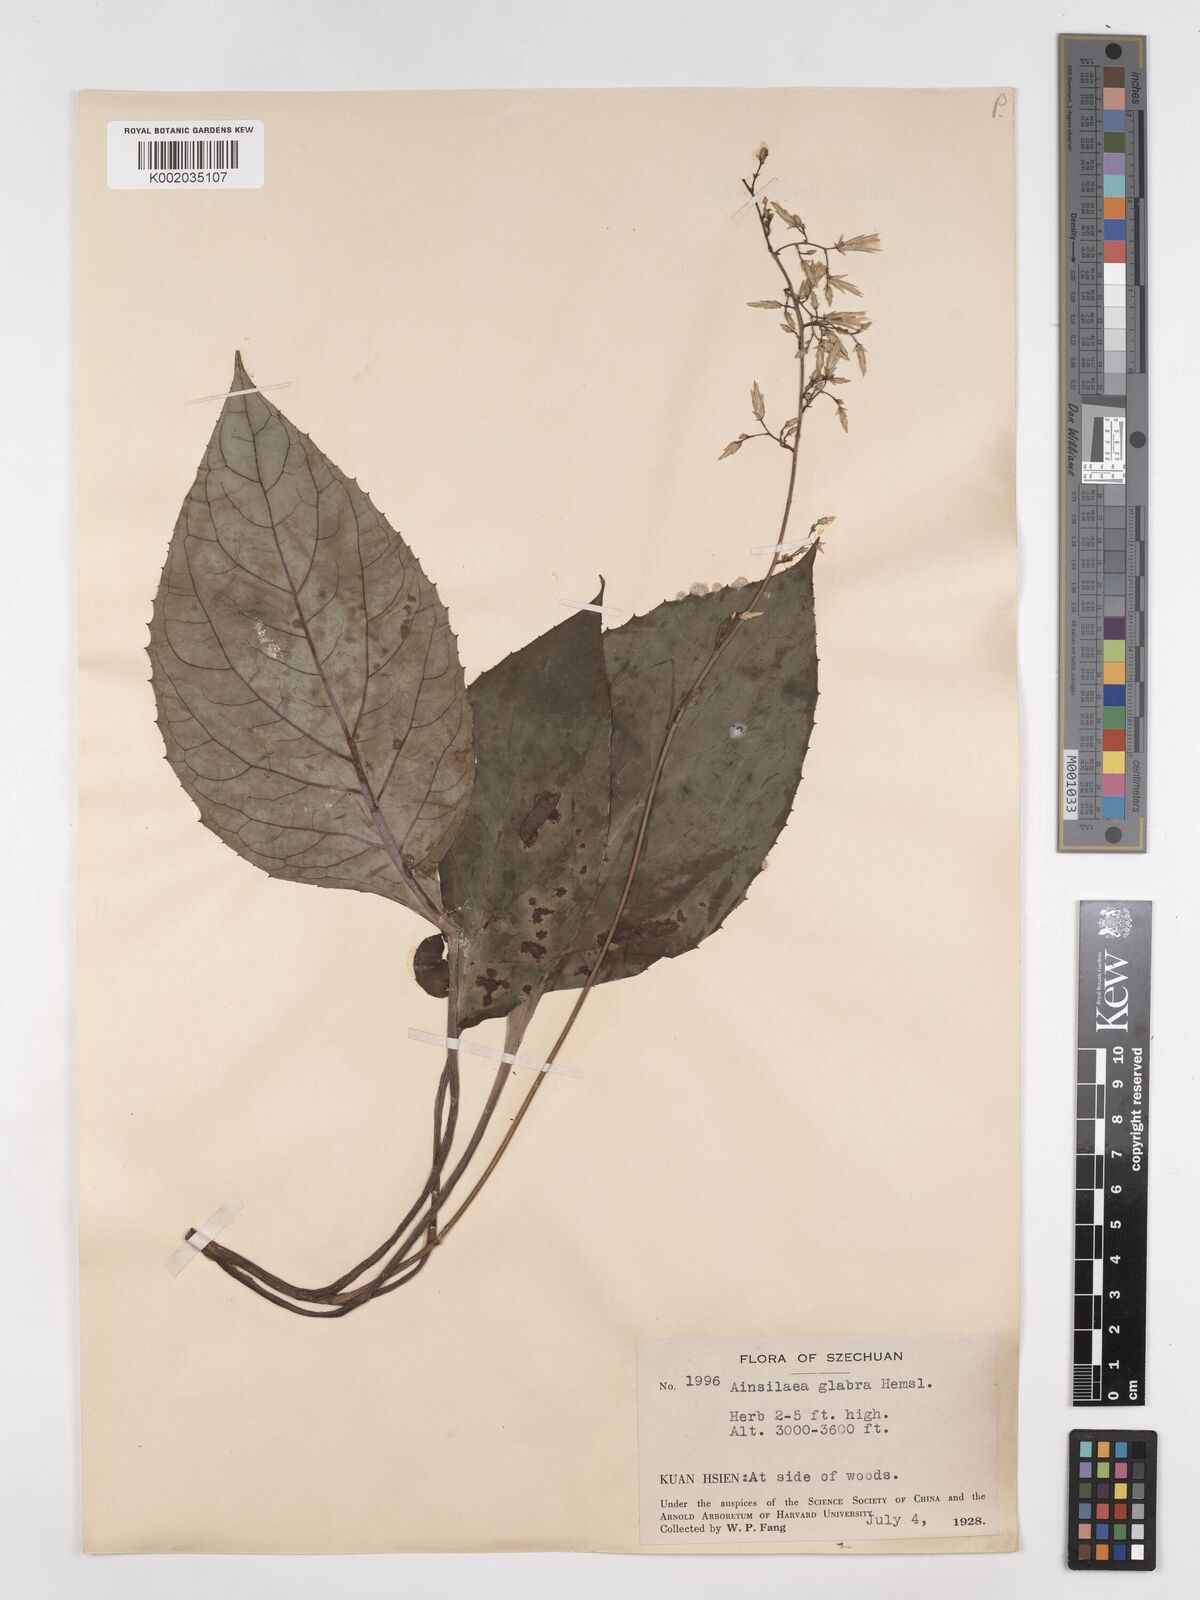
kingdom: Plantae
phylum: Tracheophyta
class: Magnoliopsida
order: Asterales
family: Asteraceae
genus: Ainsliaea
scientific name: Ainsliaea glabra
